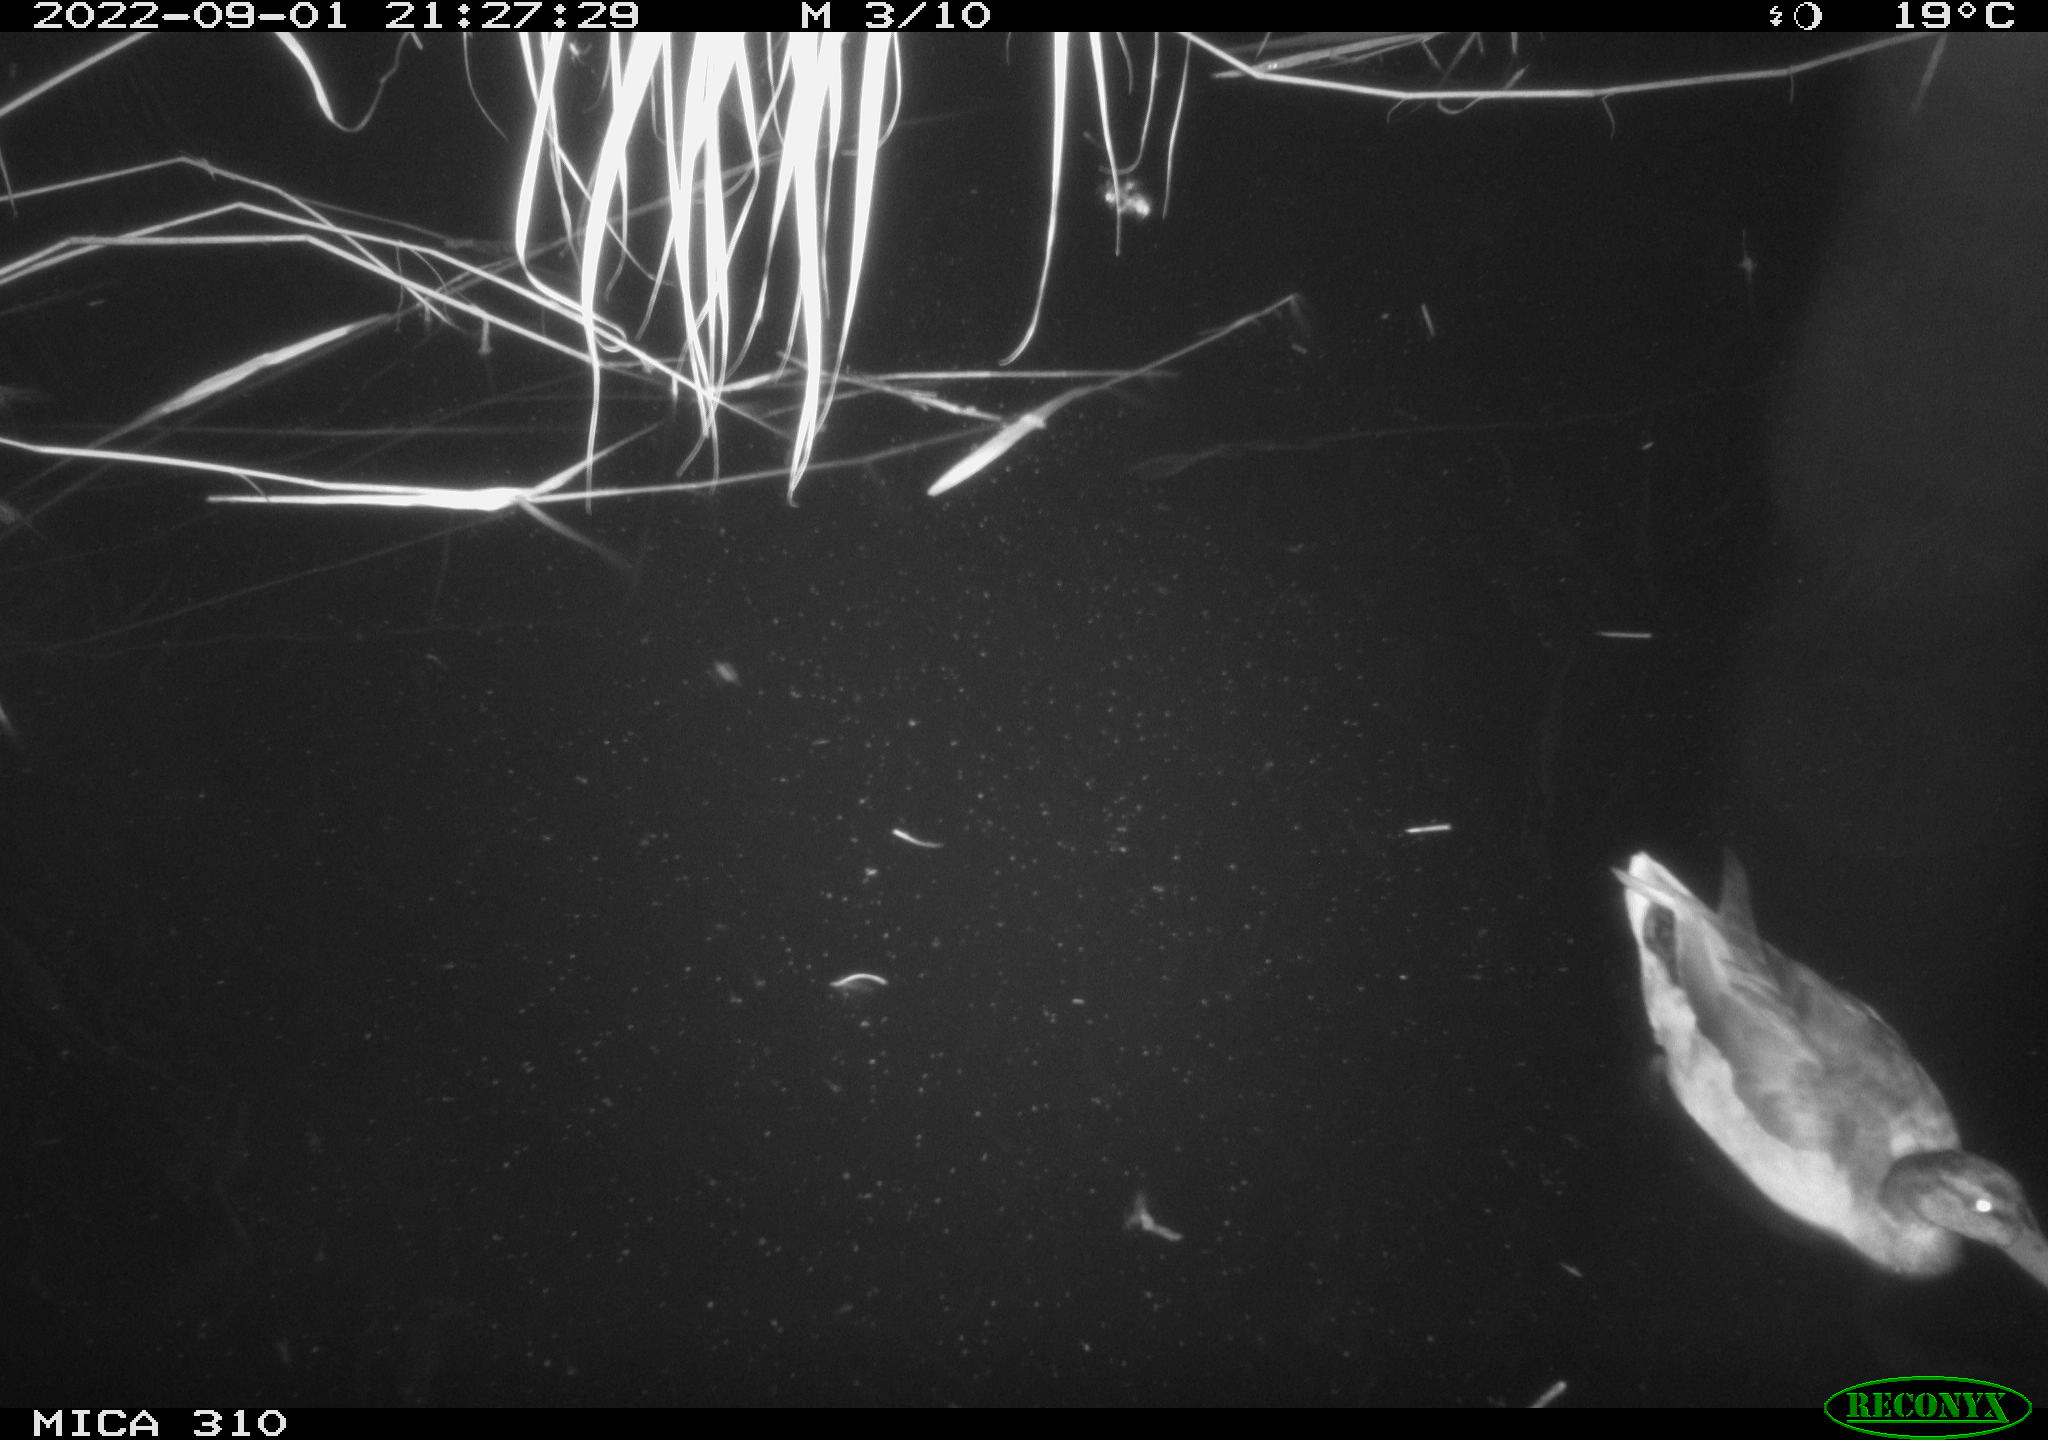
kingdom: Animalia
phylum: Chordata
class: Aves
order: Anseriformes
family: Anatidae
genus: Anas
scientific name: Anas platyrhynchos
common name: Mallard
